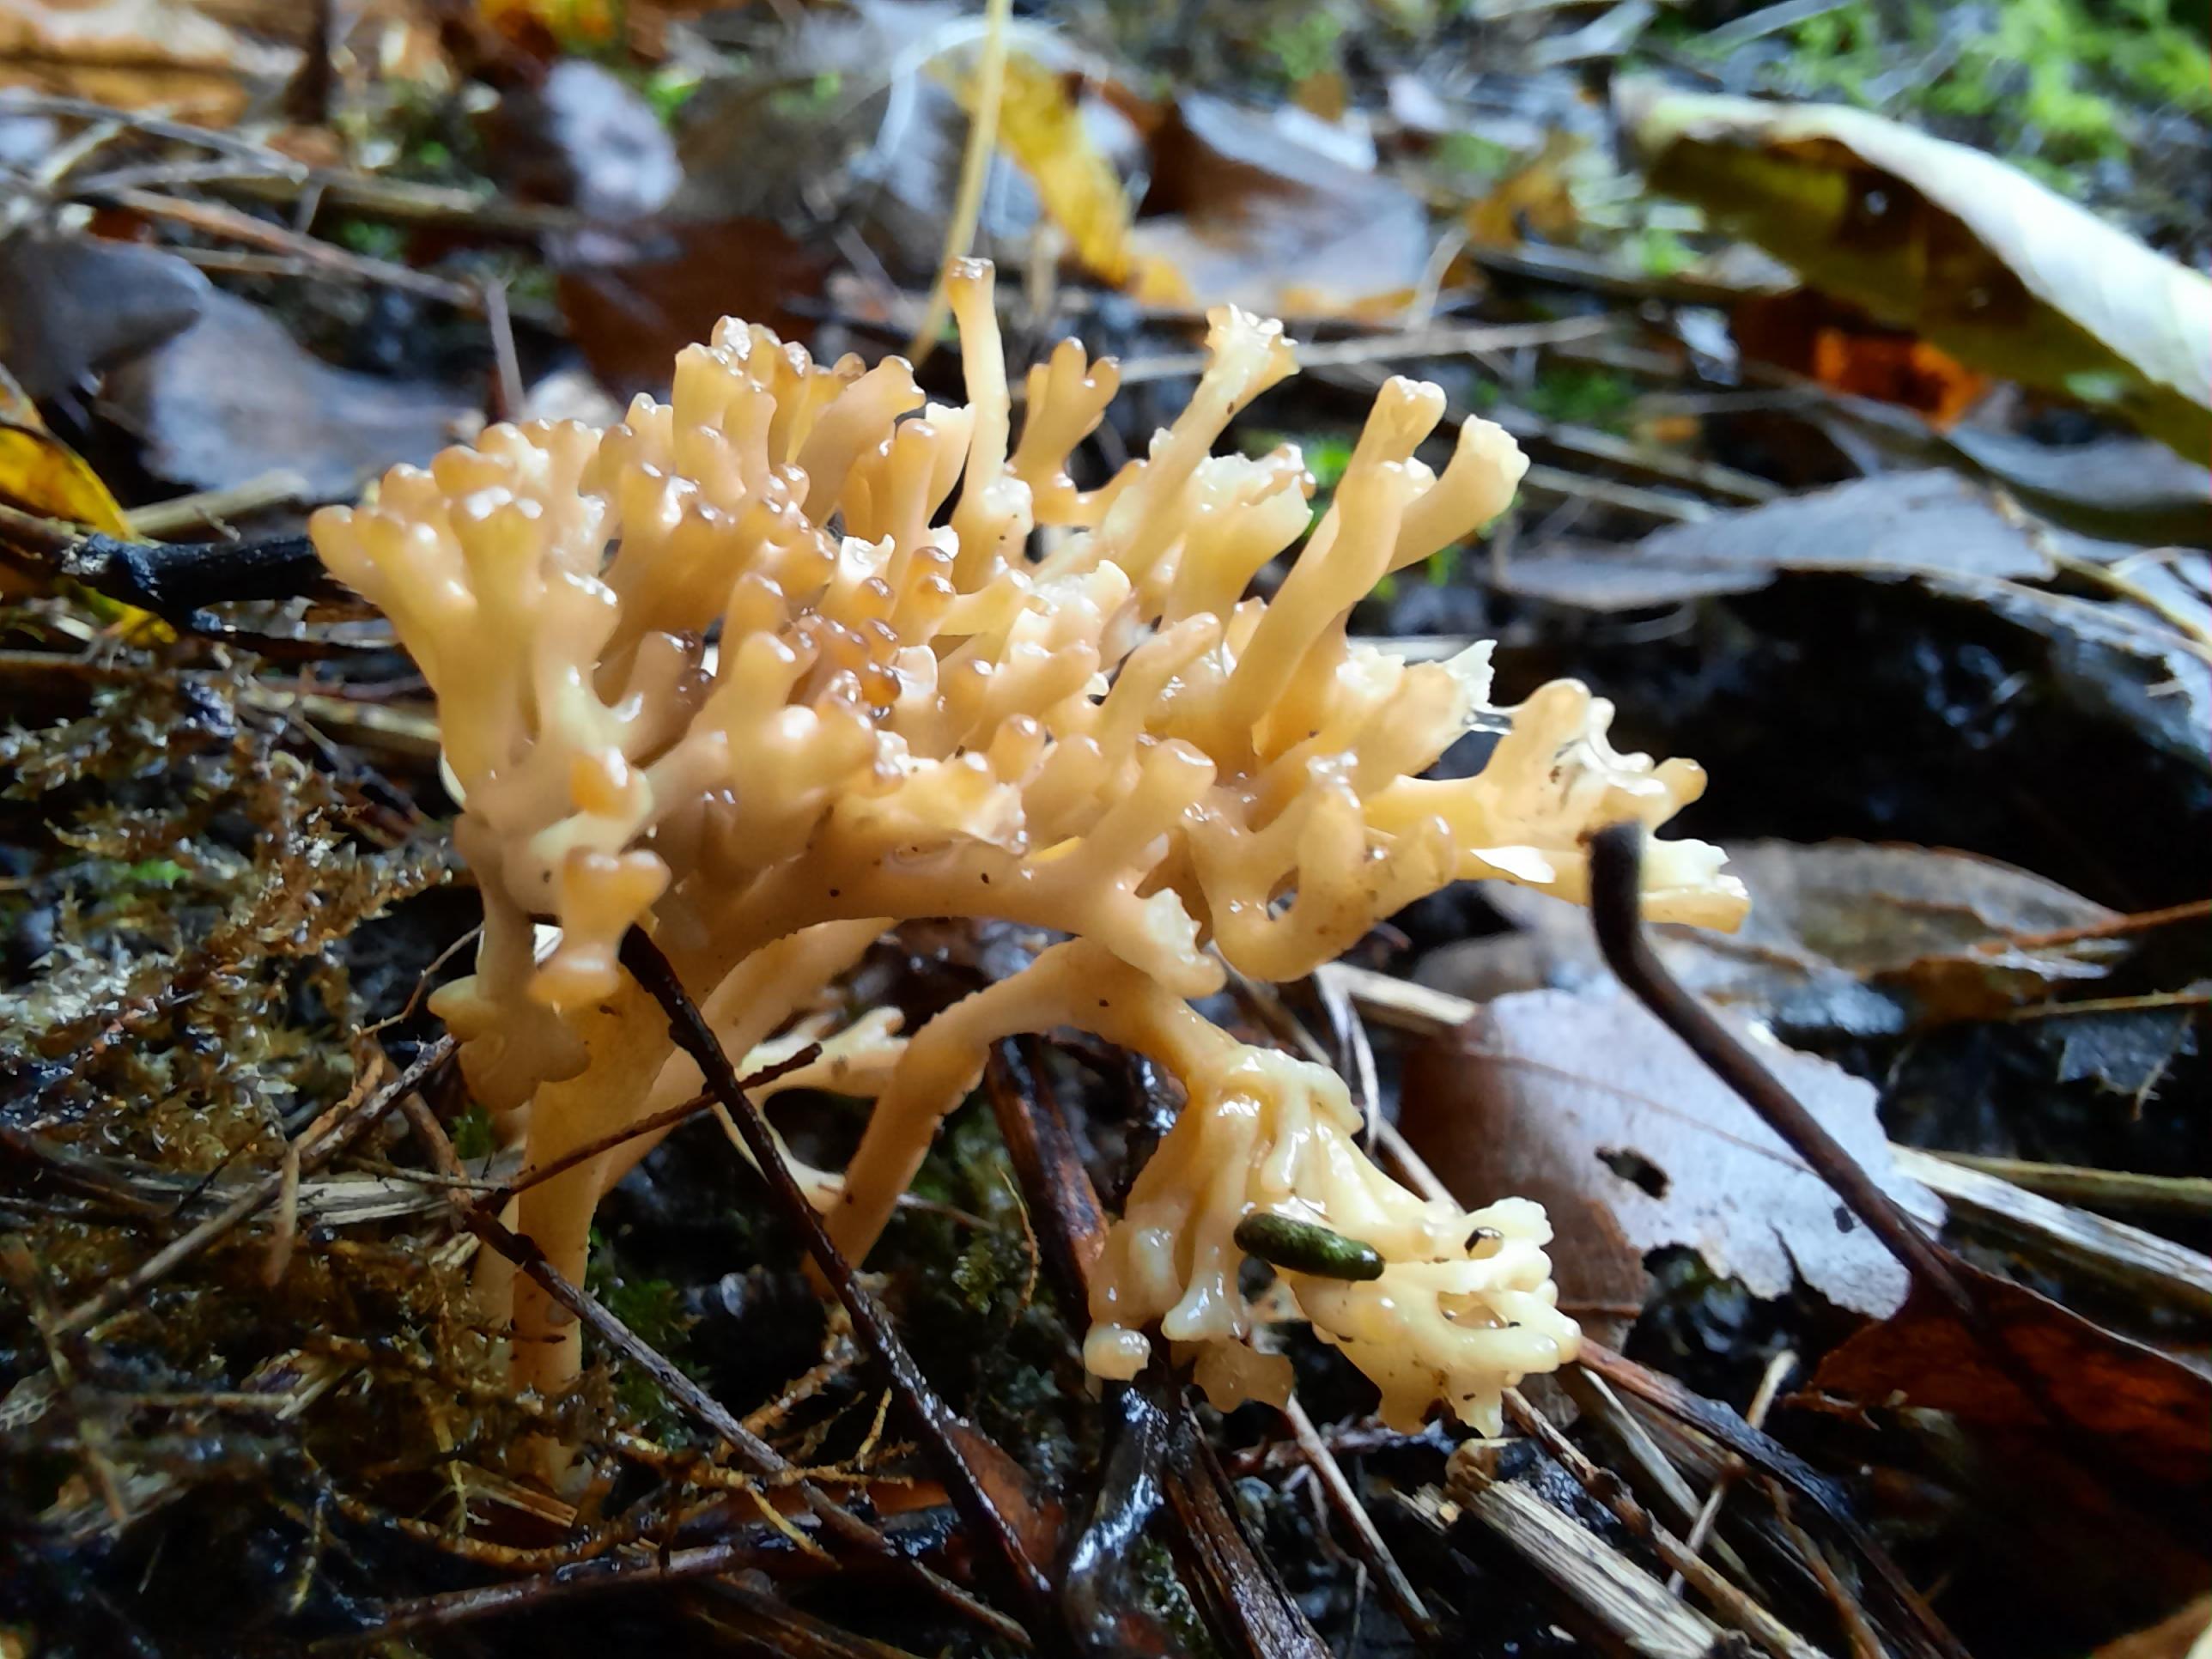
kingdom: Fungi
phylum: Basidiomycota
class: Agaricomycetes
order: Agaricales
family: Clavariaceae
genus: Clavulinopsis
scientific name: Clavulinopsis umbrinella
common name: gulgrå køllesvamp
